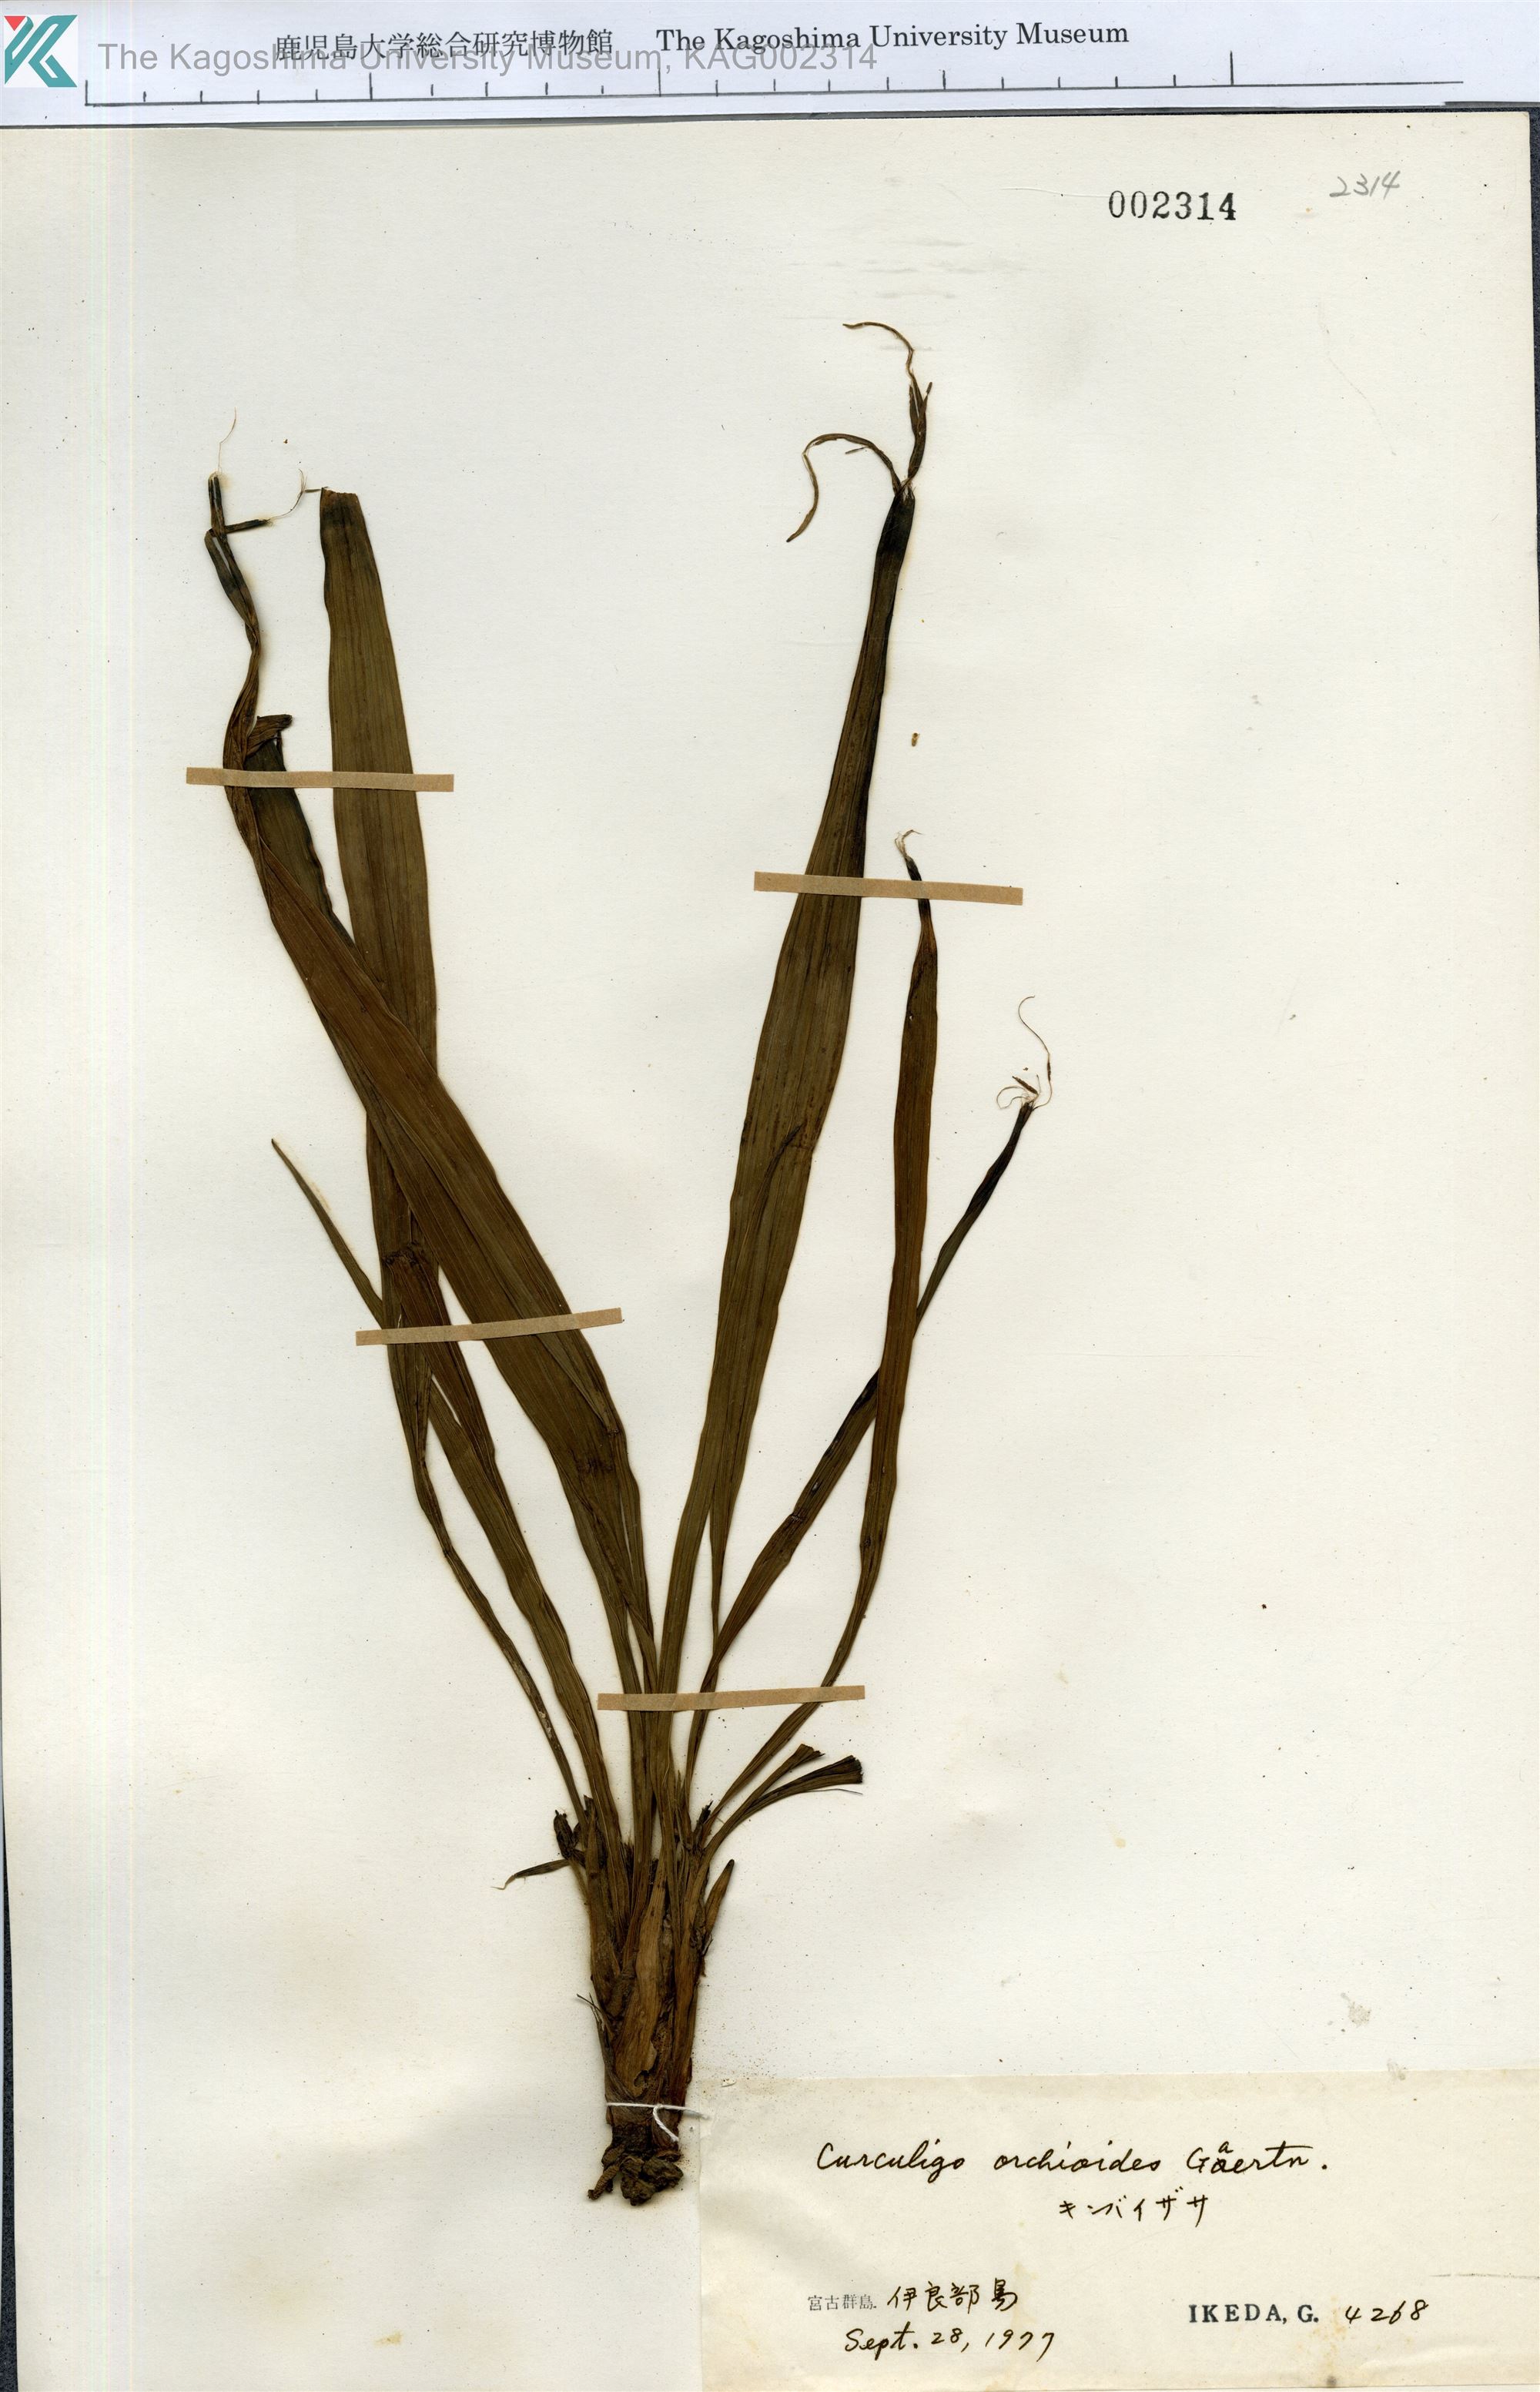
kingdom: Plantae
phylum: Tracheophyta
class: Liliopsida
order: Asparagales
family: Hypoxidaceae
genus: Curculigo
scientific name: Curculigo orchioides
